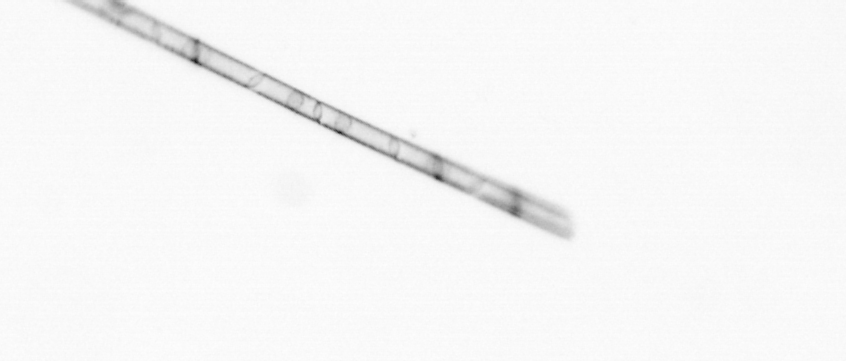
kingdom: Chromista
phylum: Ochrophyta
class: Bacillariophyceae
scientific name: Bacillariophyceae
